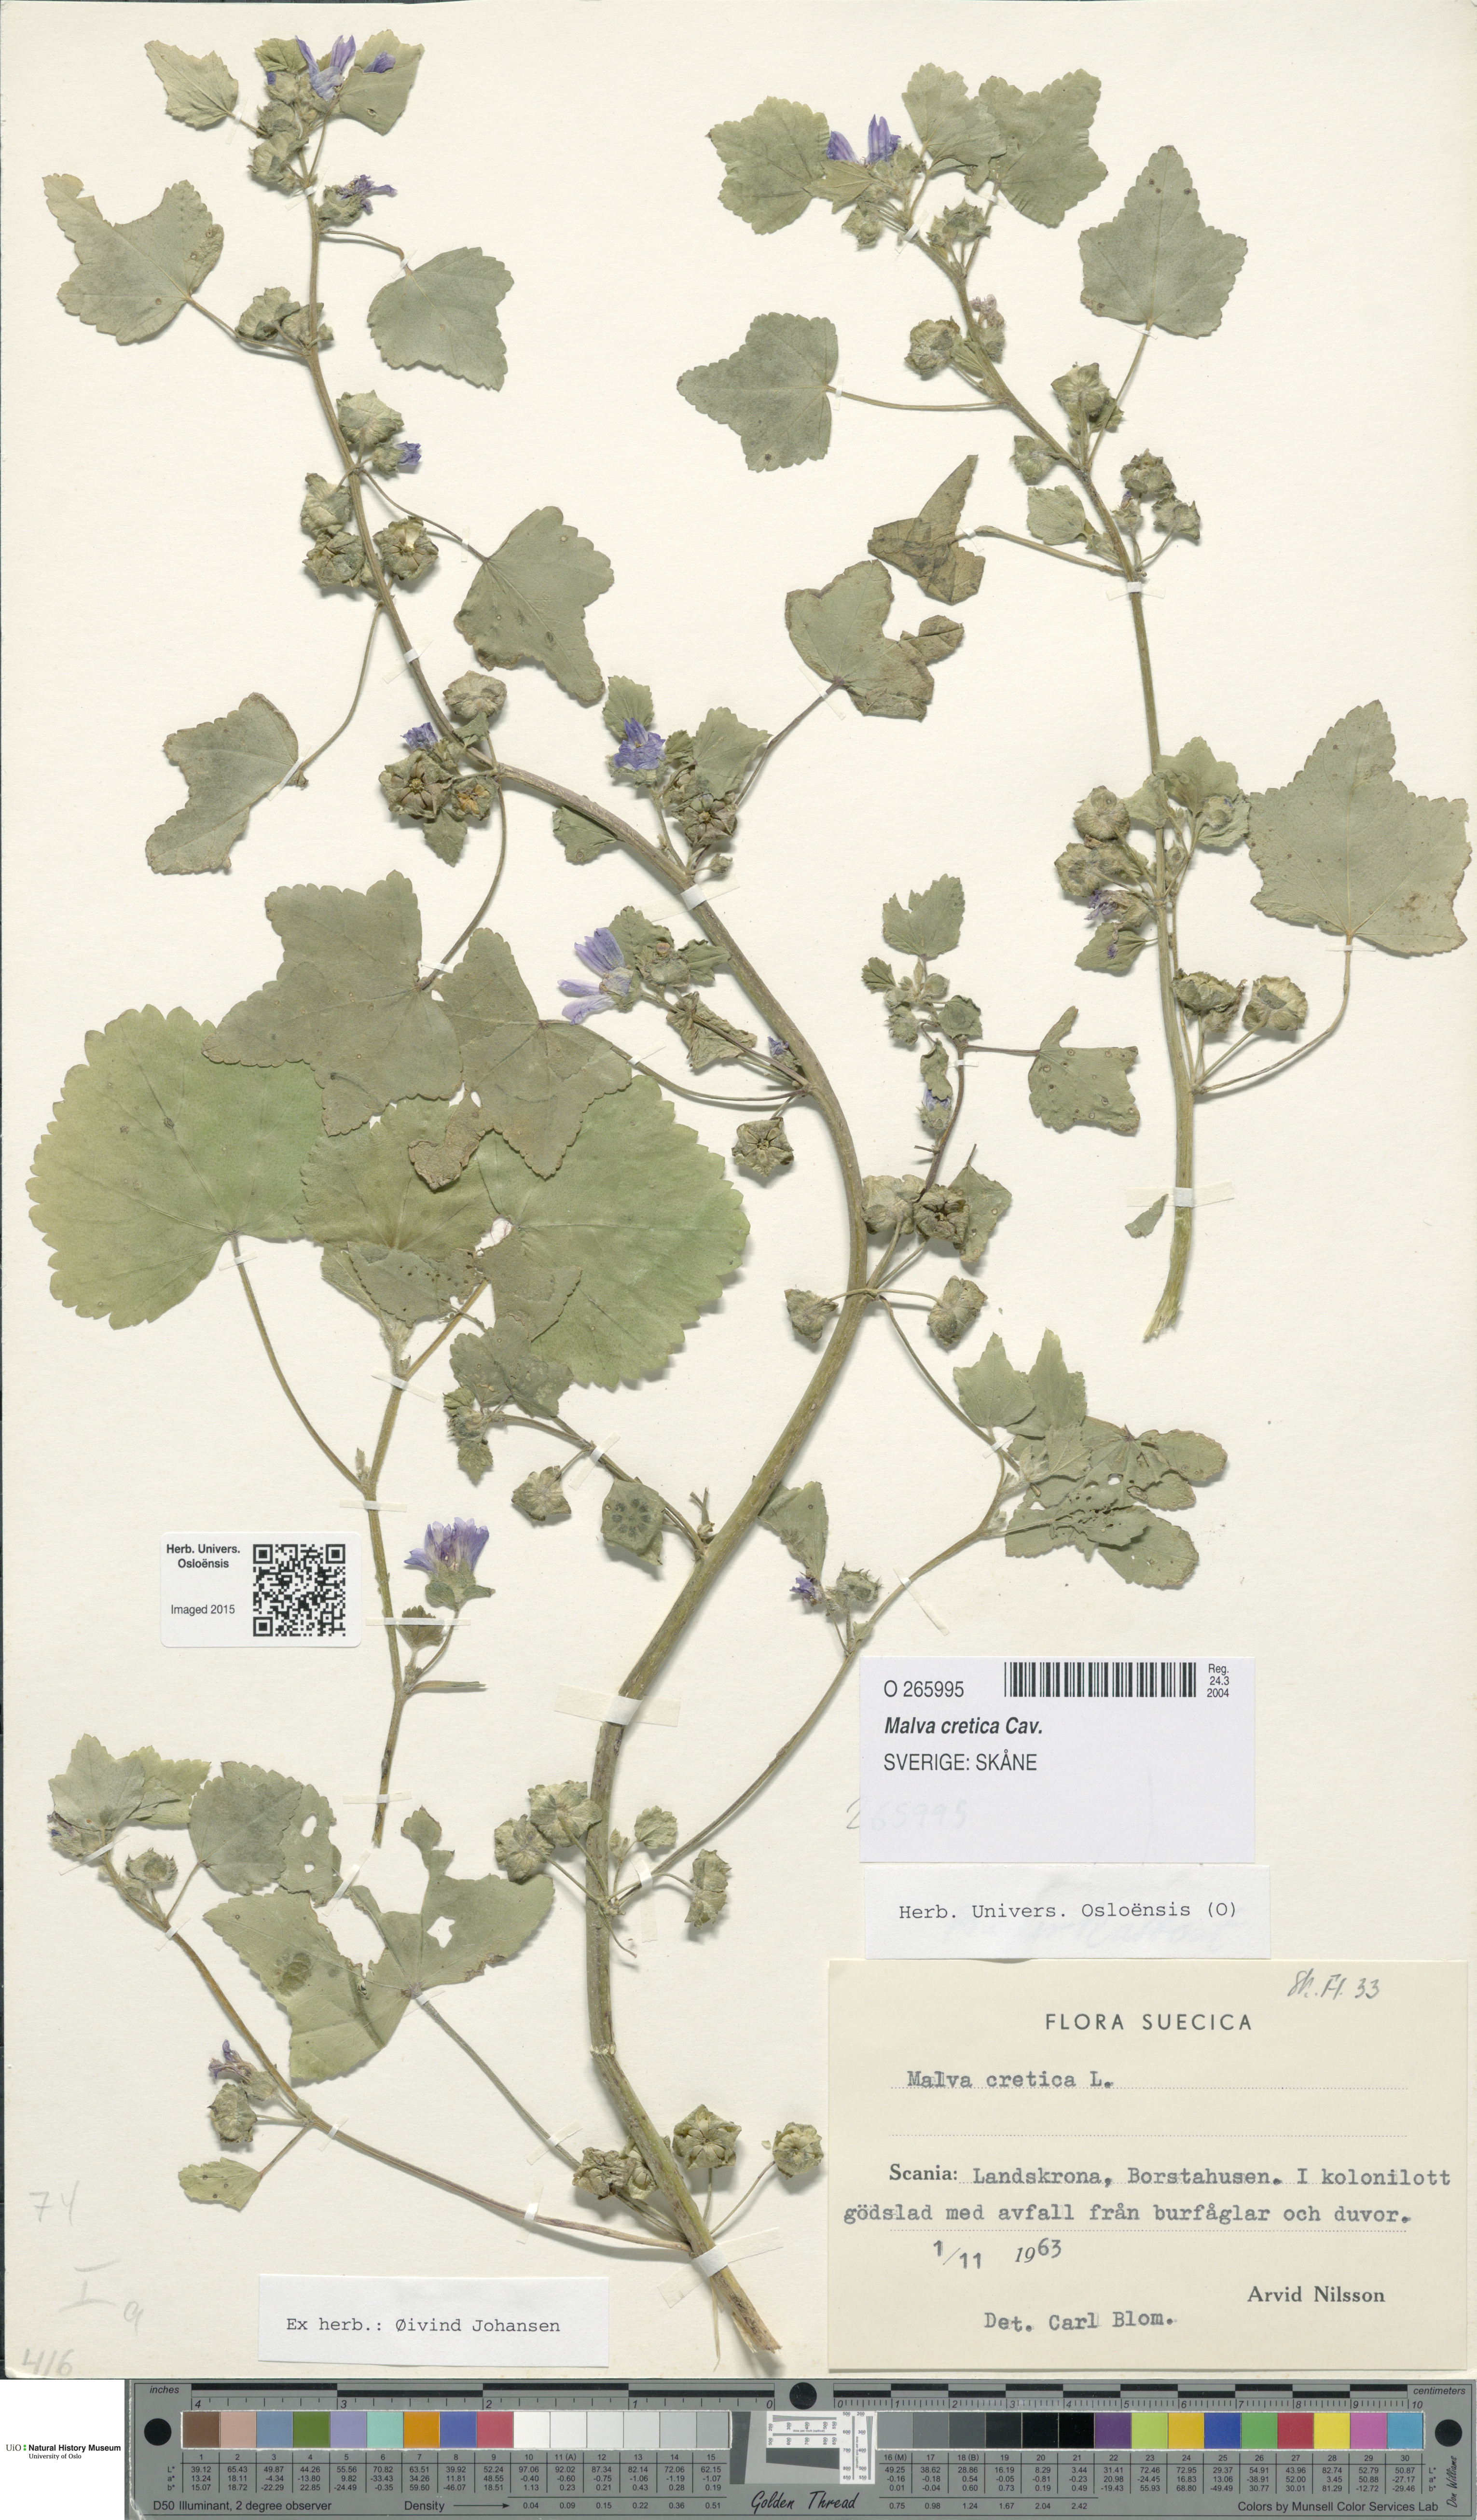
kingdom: Plantae
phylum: Tracheophyta
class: Magnoliopsida
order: Malvales
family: Malvaceae
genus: Malva
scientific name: Malva cretica
